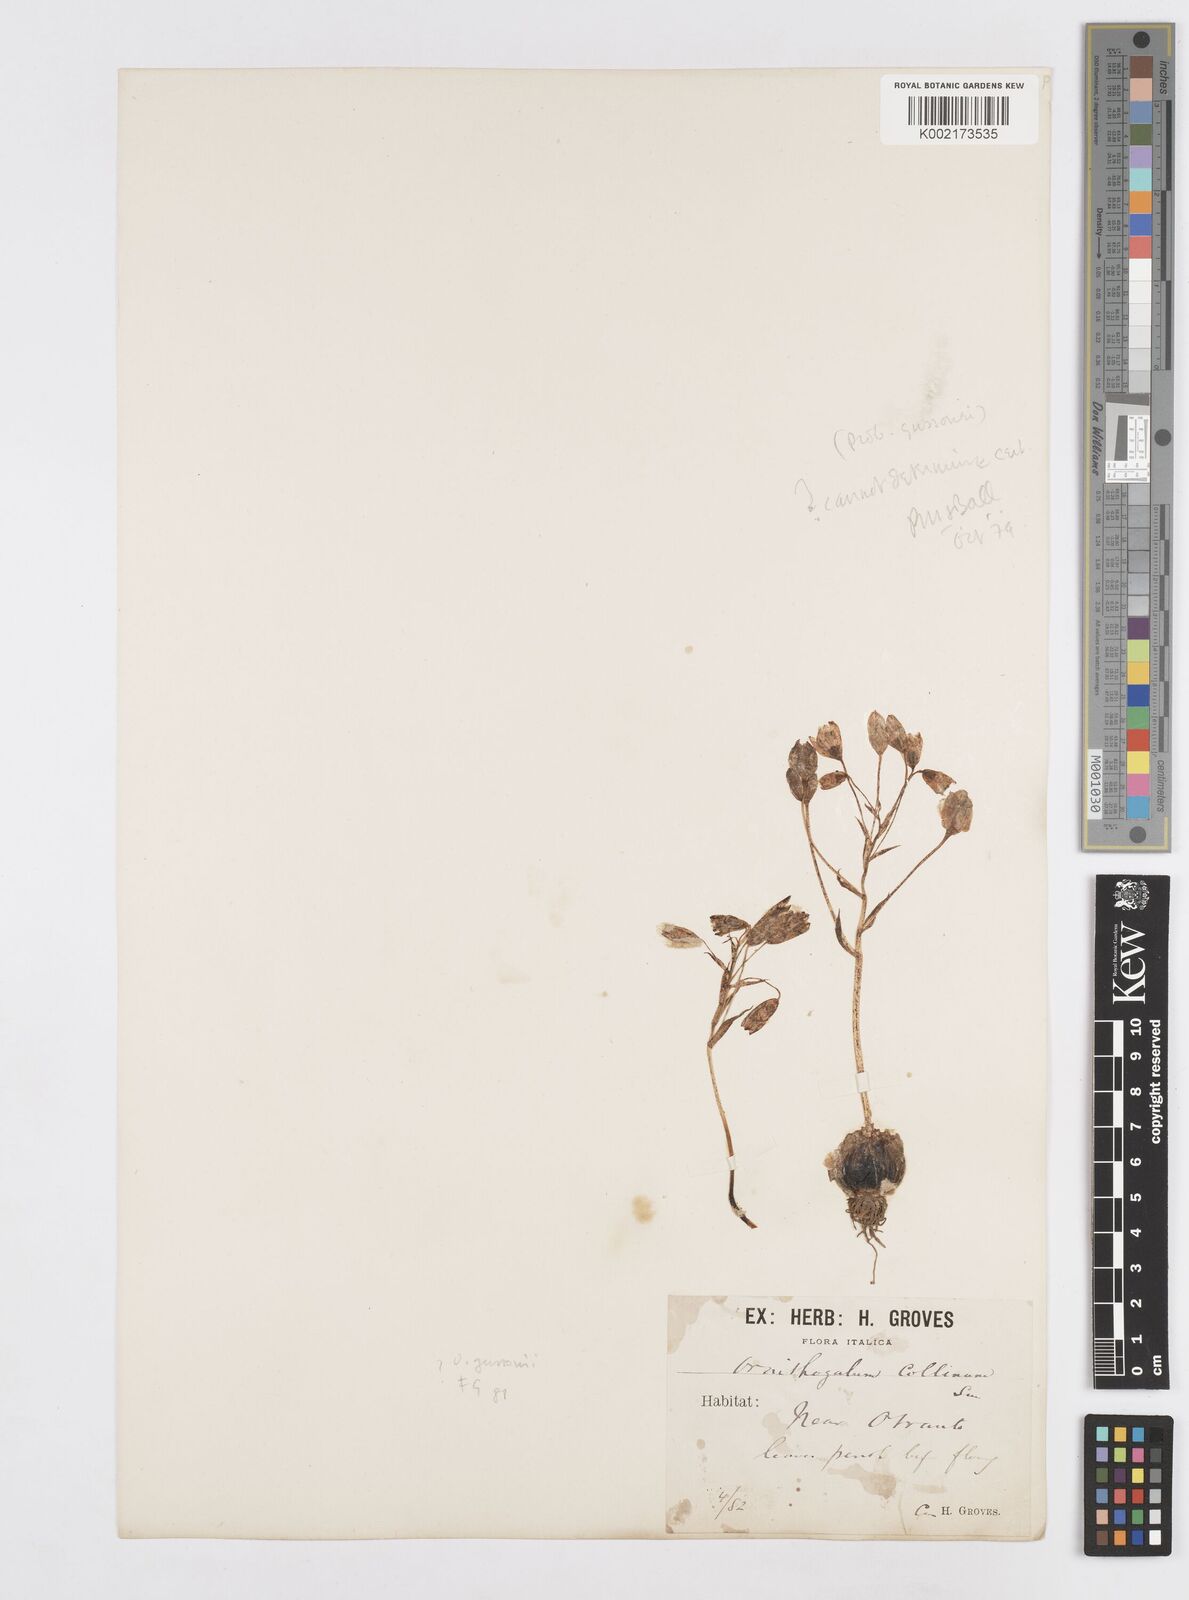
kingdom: Plantae
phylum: Tracheophyta
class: Liliopsida
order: Asparagales
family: Asparagaceae
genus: Ornithogalum
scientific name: Ornithogalum gussonei
